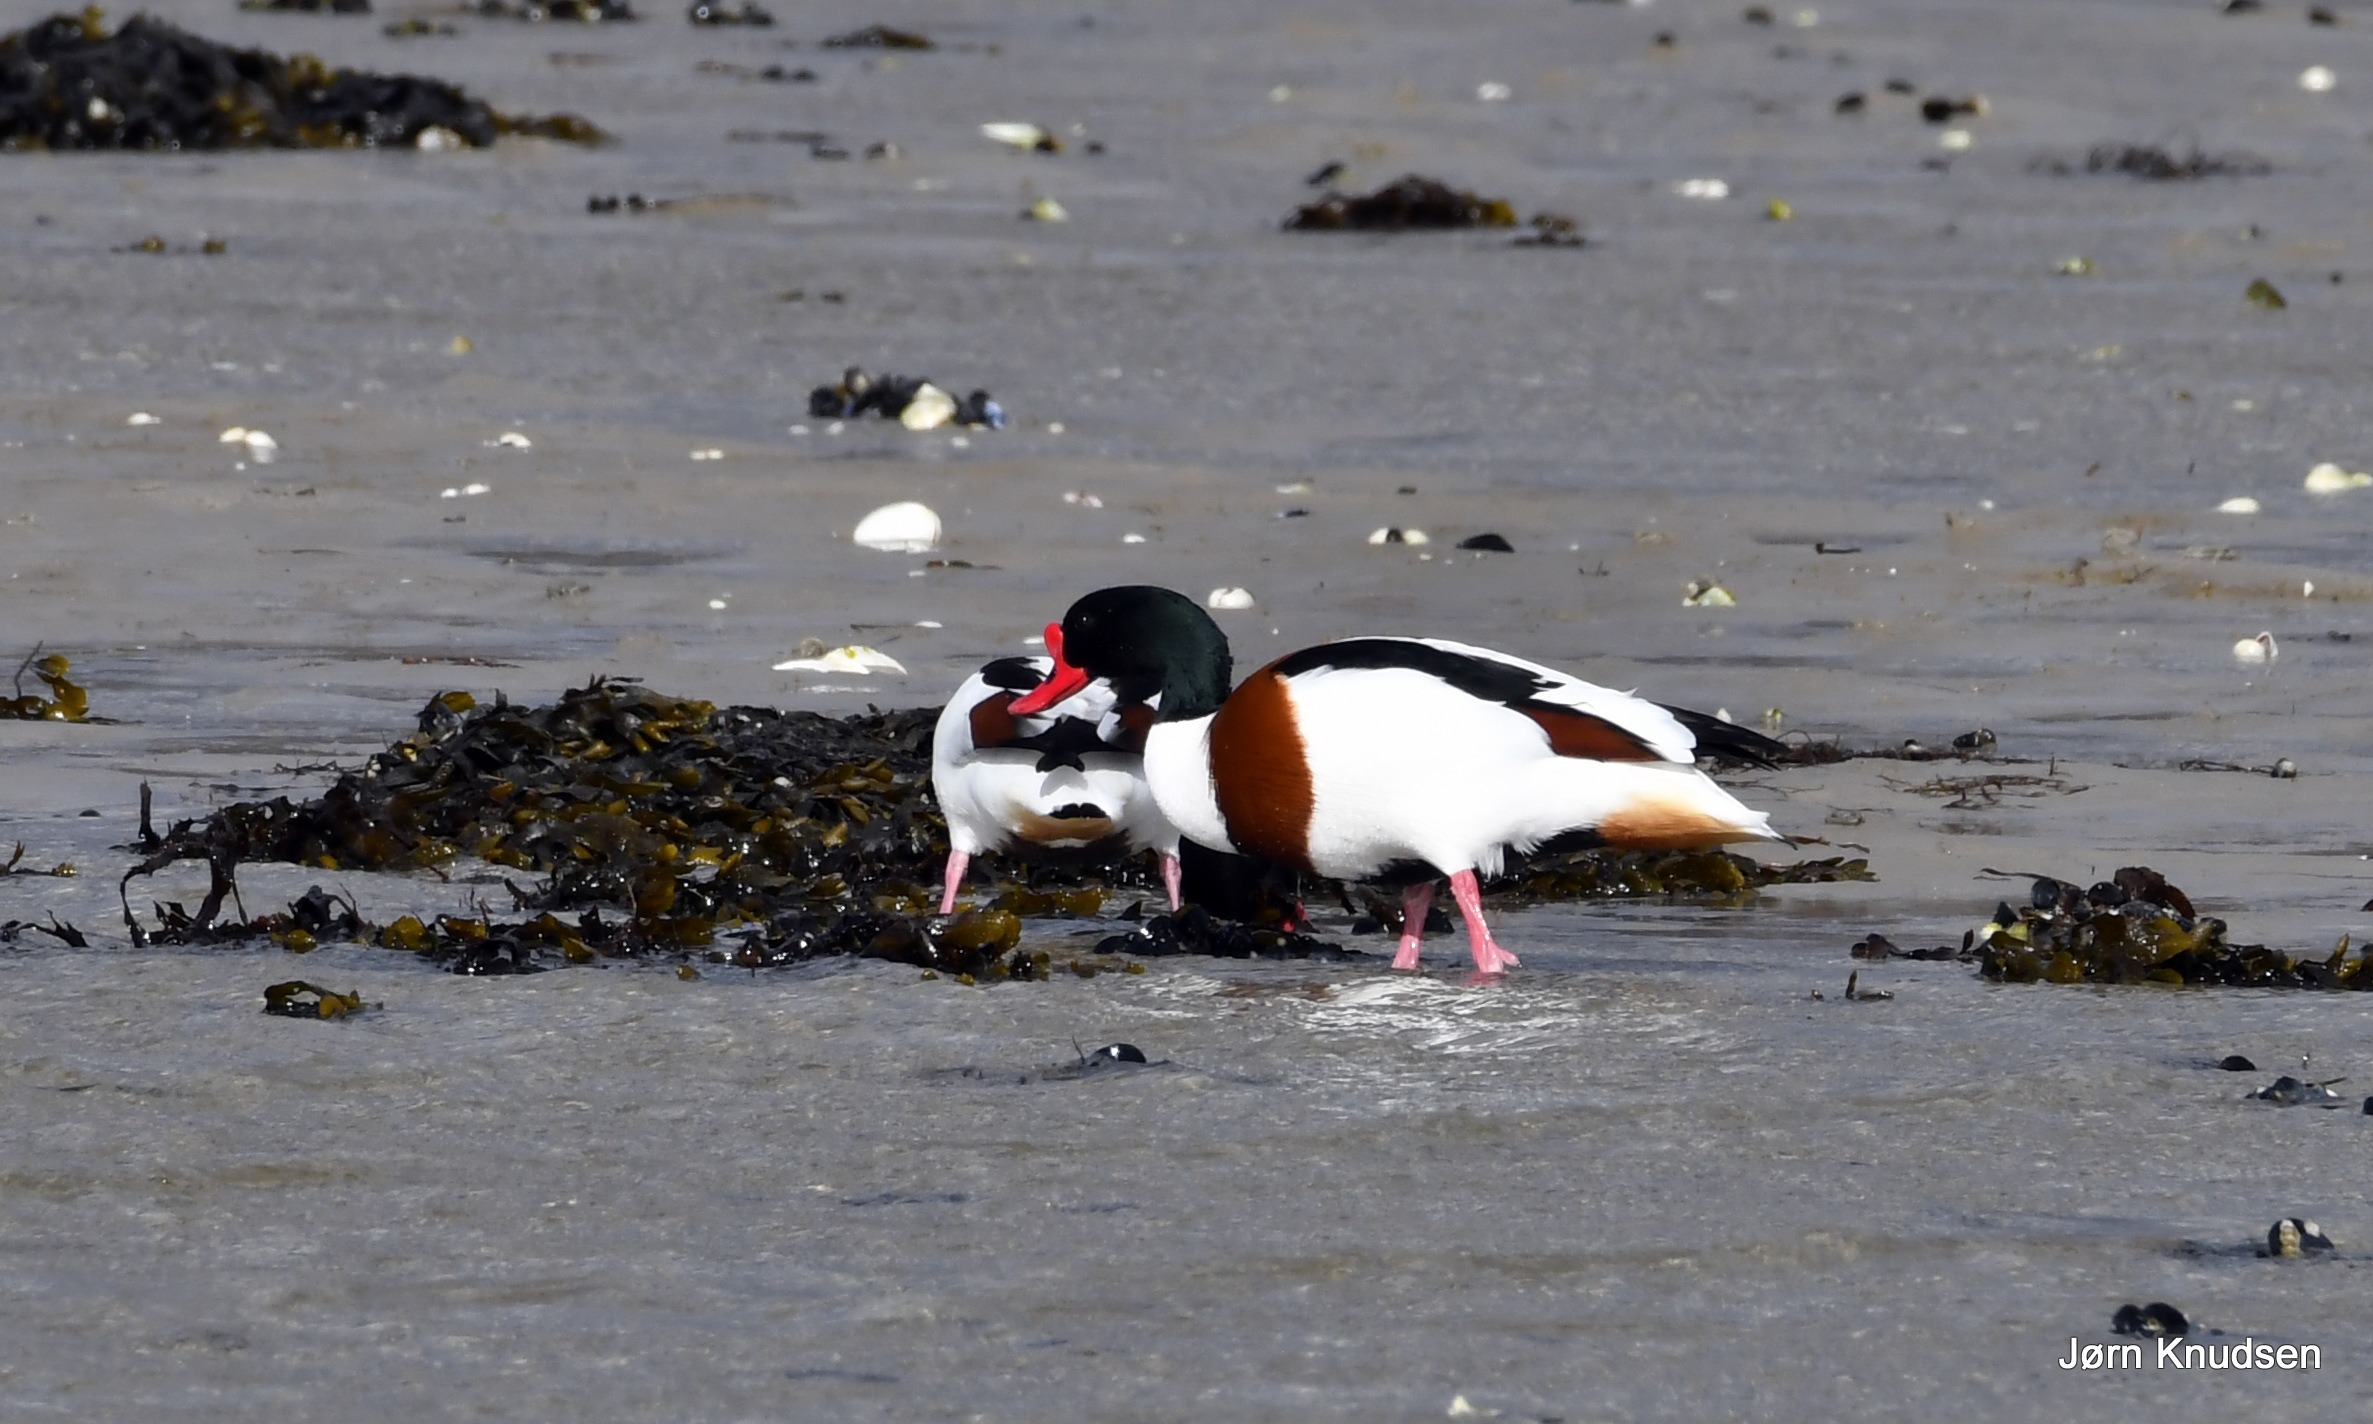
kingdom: Animalia
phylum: Chordata
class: Aves
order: Anseriformes
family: Anatidae
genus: Tadorna
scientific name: Tadorna tadorna
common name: Gravand
